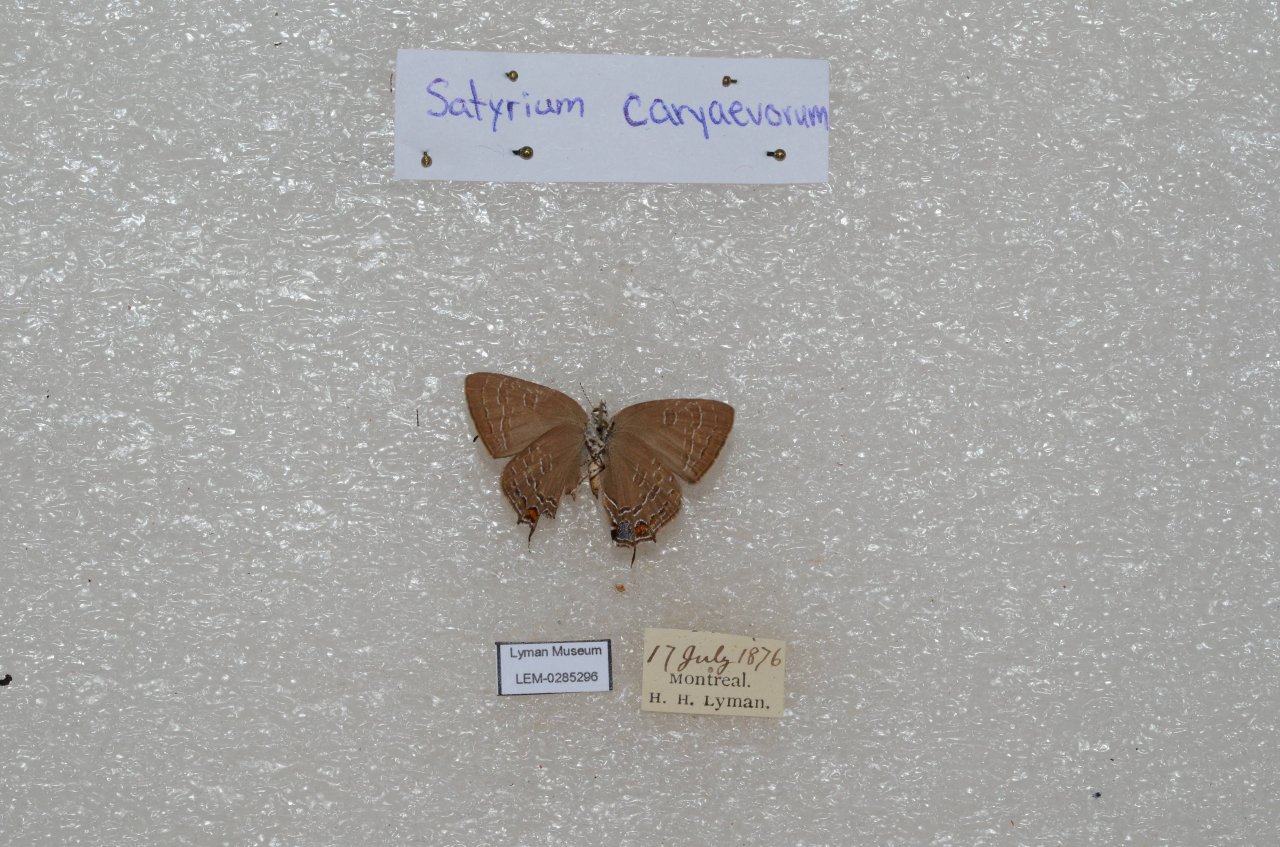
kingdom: Animalia
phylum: Arthropoda
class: Insecta
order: Lepidoptera
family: Lycaenidae
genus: Strymon
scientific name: Strymon caryaevorus
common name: Hickory Hairstreak
